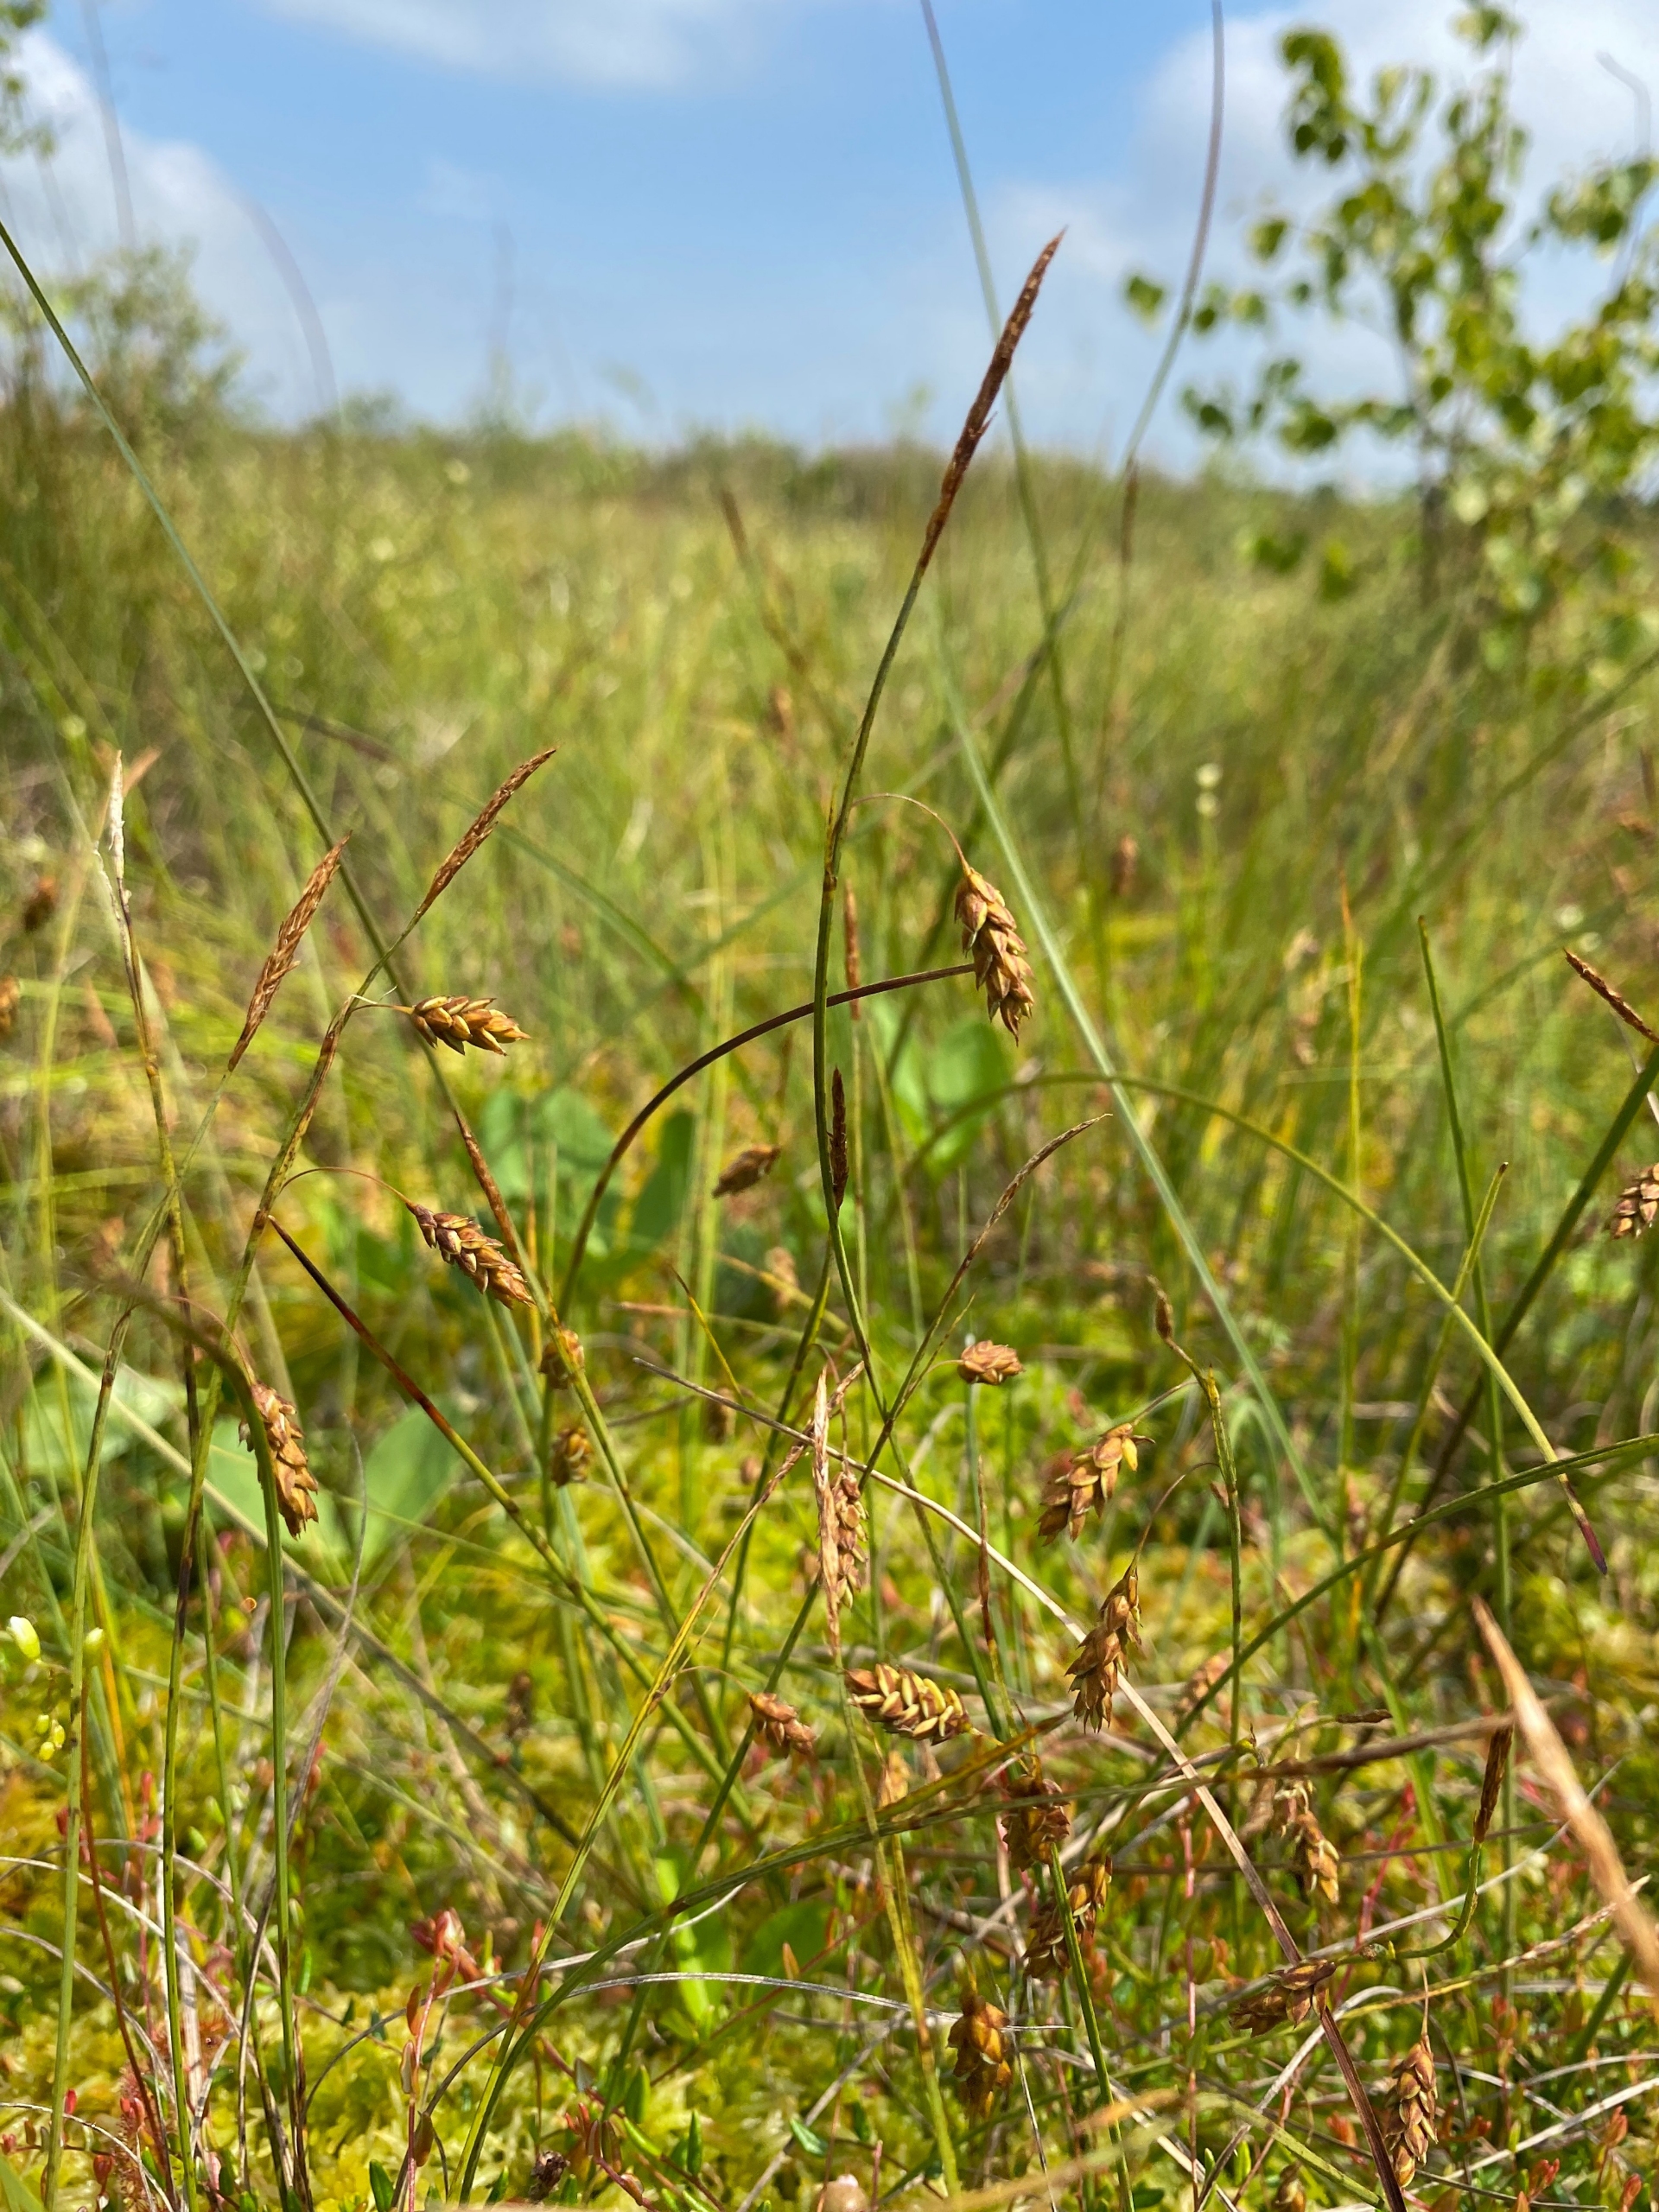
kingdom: Plantae
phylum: Tracheophyta
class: Liliopsida
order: Poales
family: Cyperaceae
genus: Carex
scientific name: Carex limosa
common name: Dynd-star
